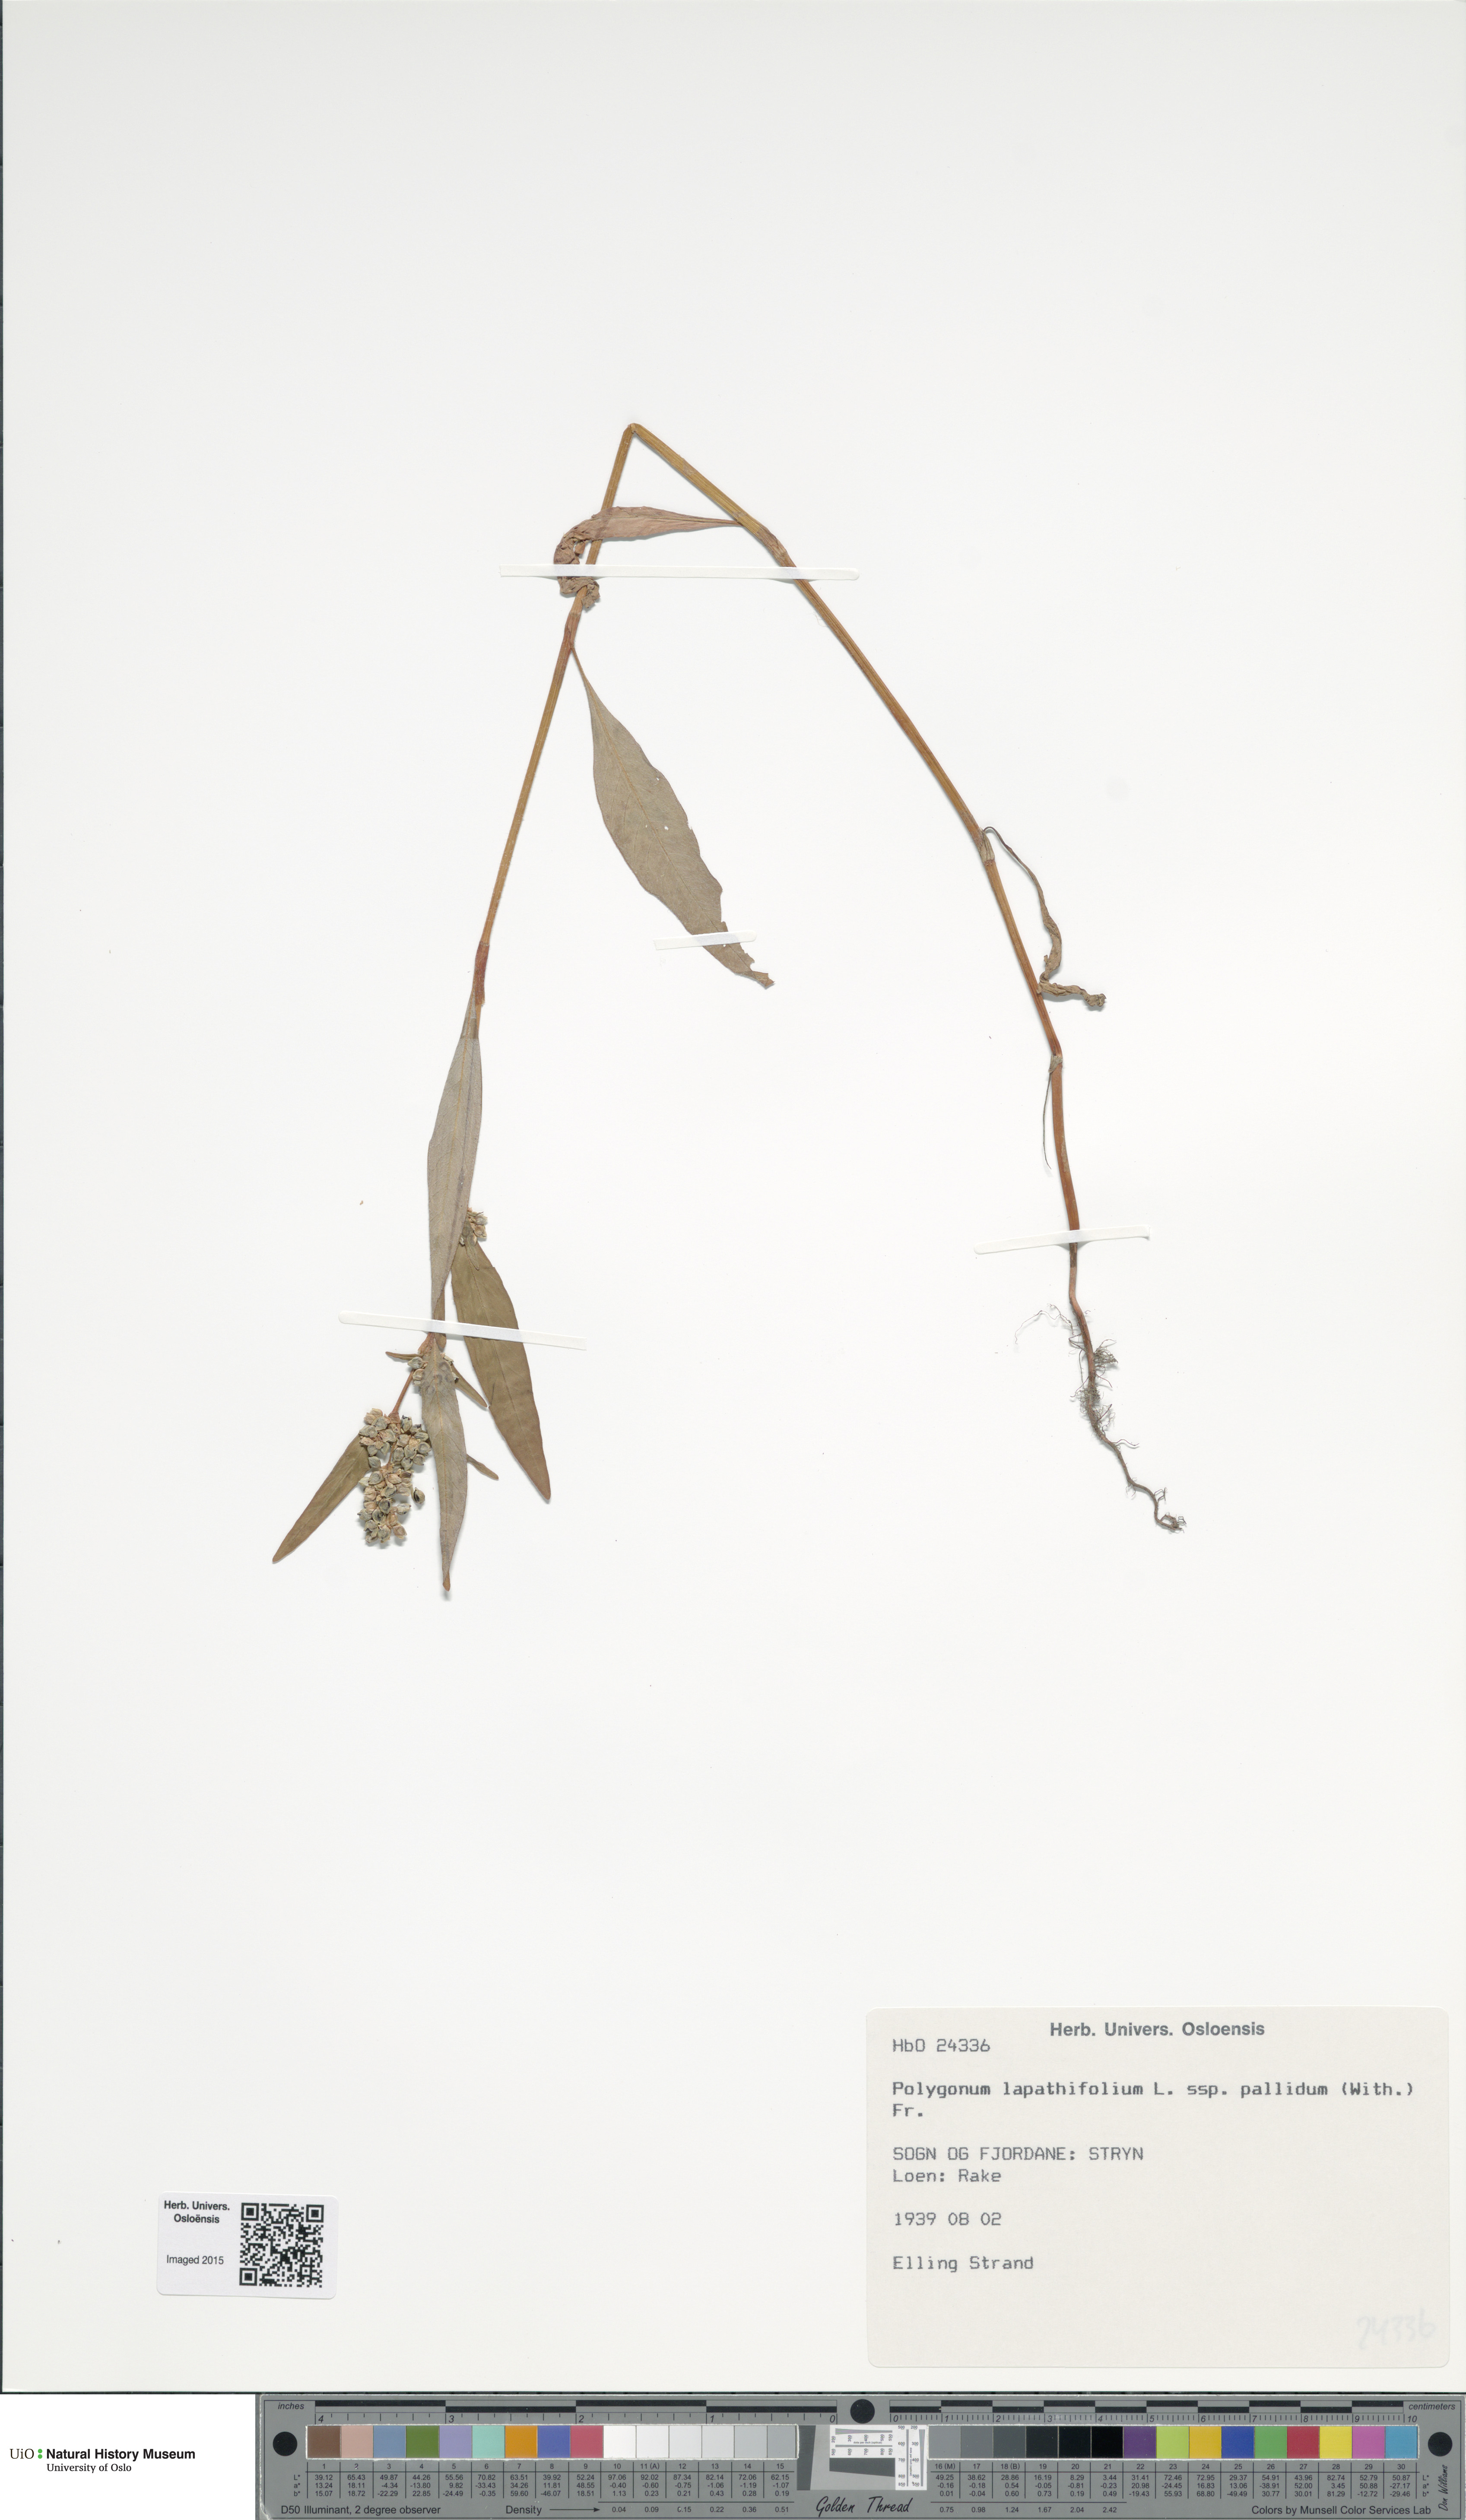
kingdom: Plantae
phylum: Tracheophyta
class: Magnoliopsida
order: Caryophyllales
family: Polygonaceae
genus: Persicaria
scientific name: Persicaria lapathifolia
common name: Curlytop knotweed
